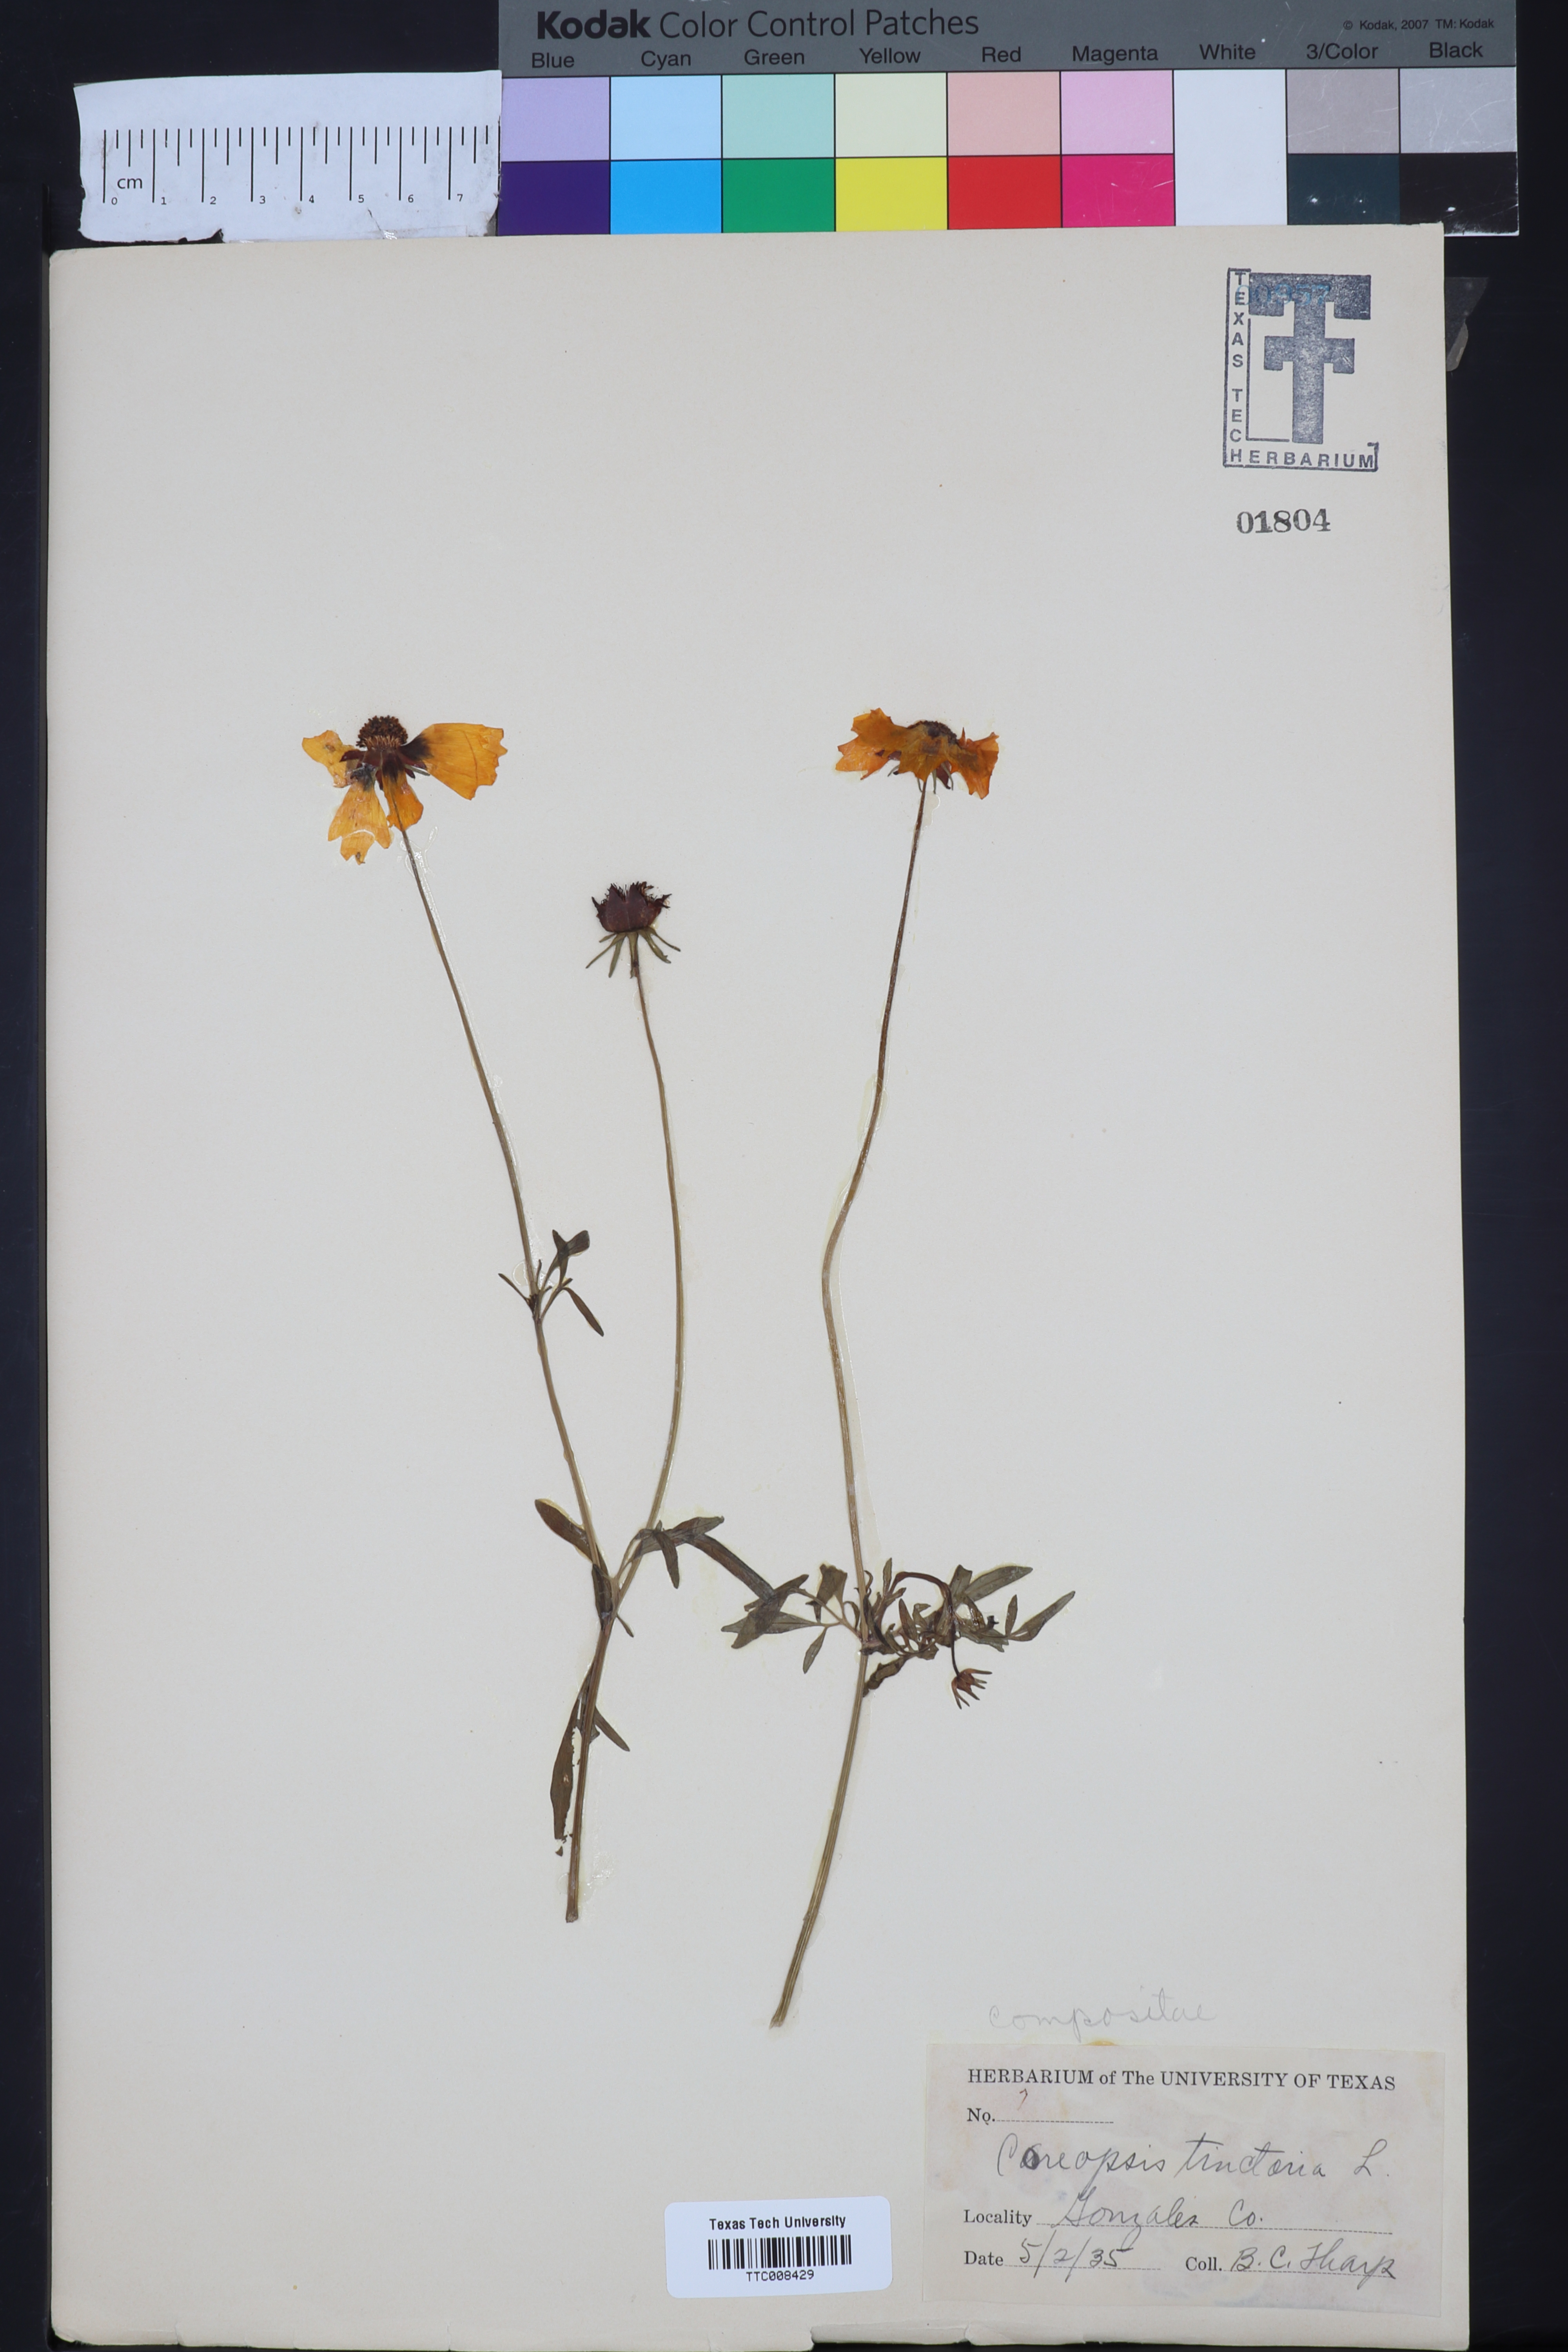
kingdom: Plantae
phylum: Tracheophyta
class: Magnoliopsida
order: Asterales
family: Asteraceae
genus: Coreopsis
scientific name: Coreopsis tinctoria
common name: Garden tickseed
